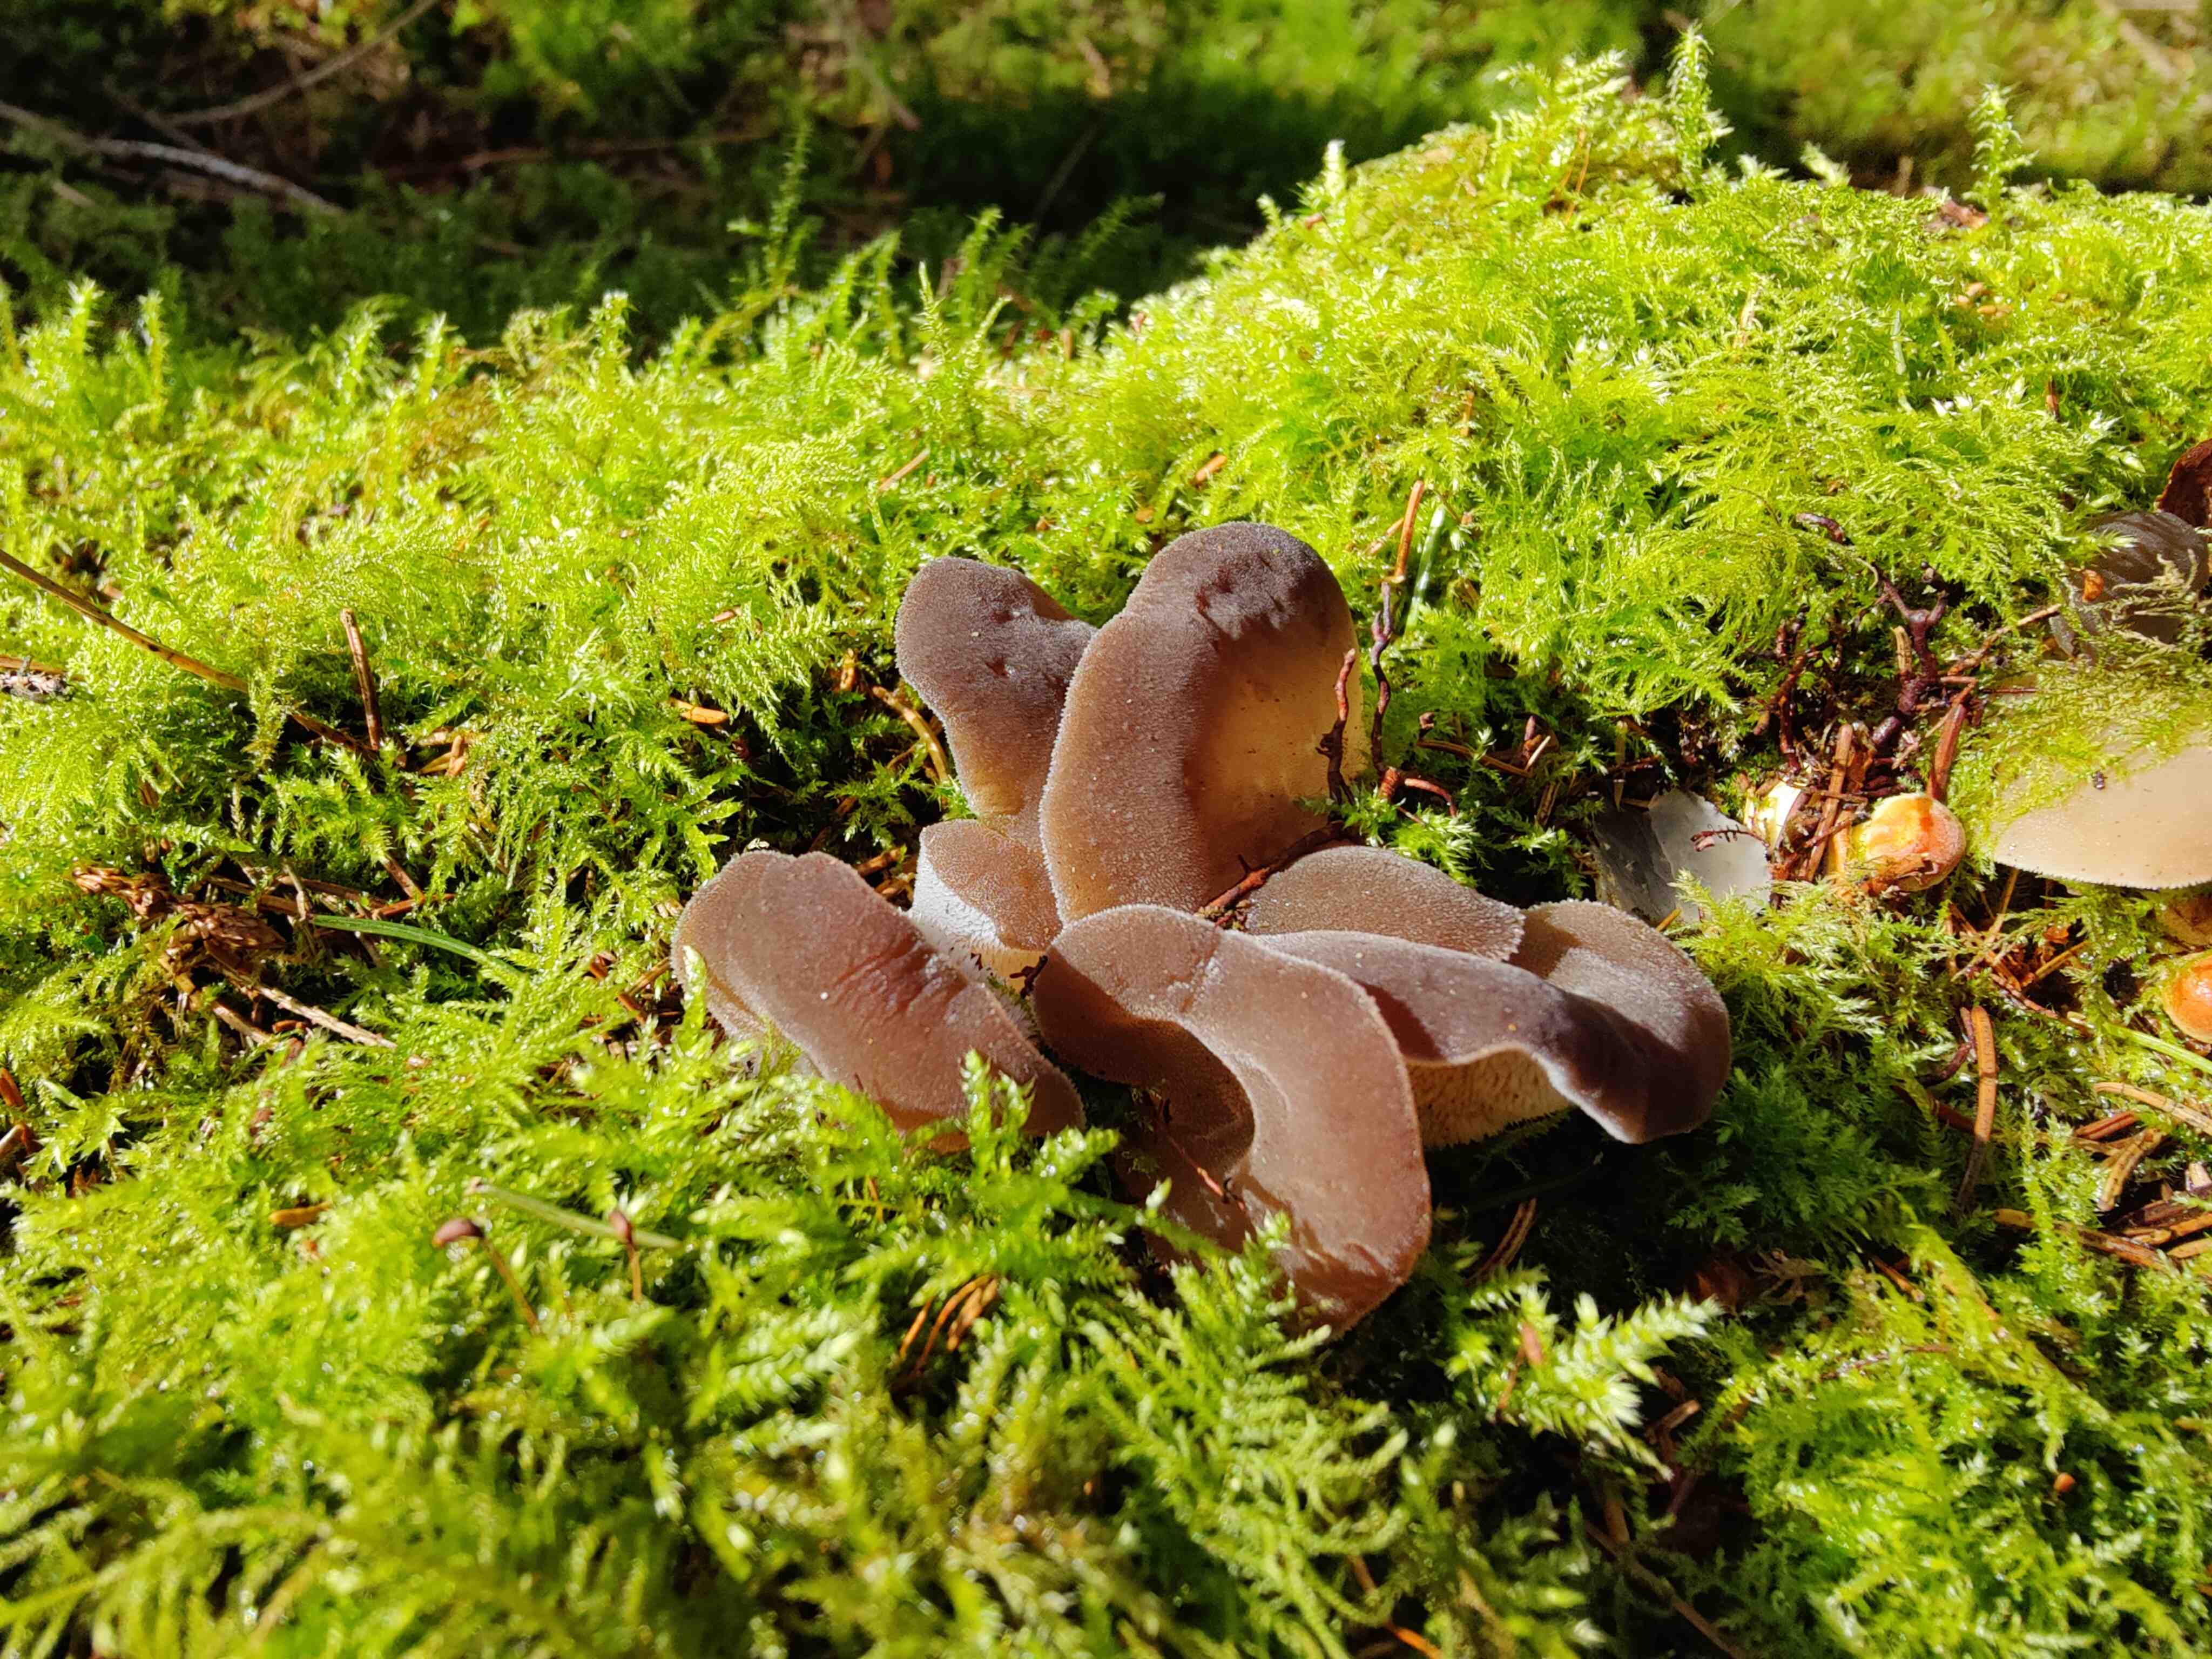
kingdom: Fungi
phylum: Basidiomycota
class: Agaricomycetes
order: Auriculariales
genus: Pseudohydnum
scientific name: Pseudohydnum gelatinosum
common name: bævretand
